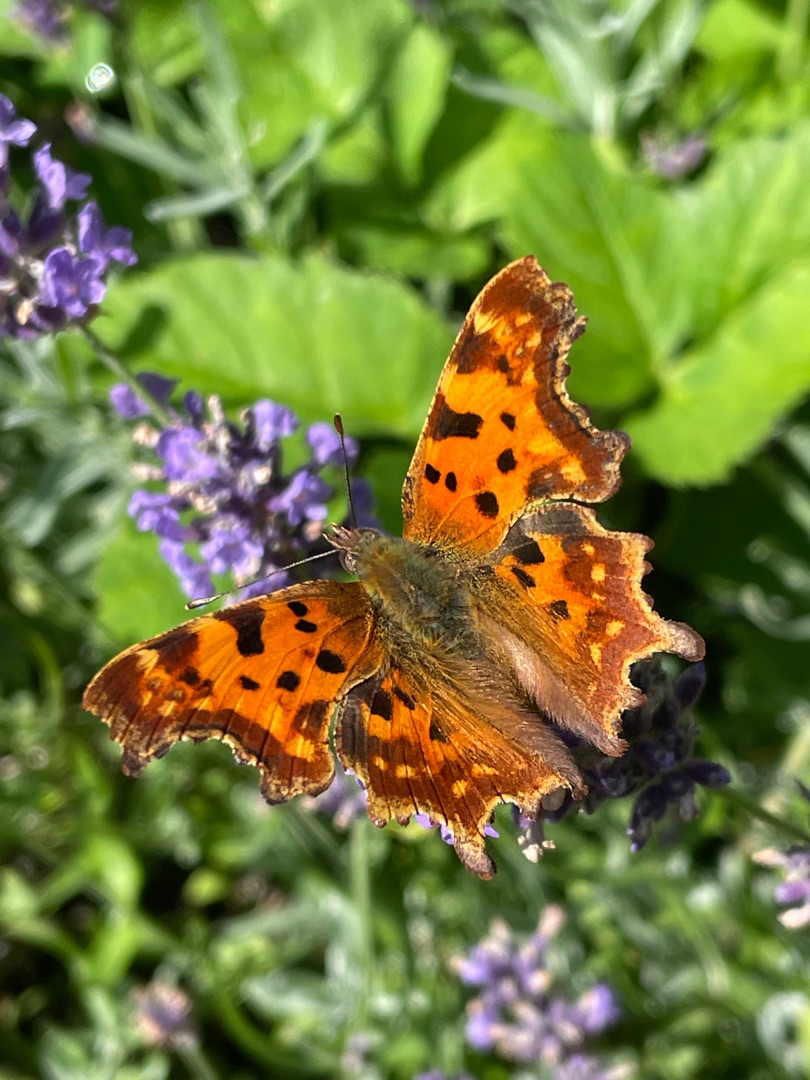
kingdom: Animalia
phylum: Arthropoda
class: Insecta
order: Lepidoptera
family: Nymphalidae
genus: Polygonia
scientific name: Polygonia c-album
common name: Det hvide C
